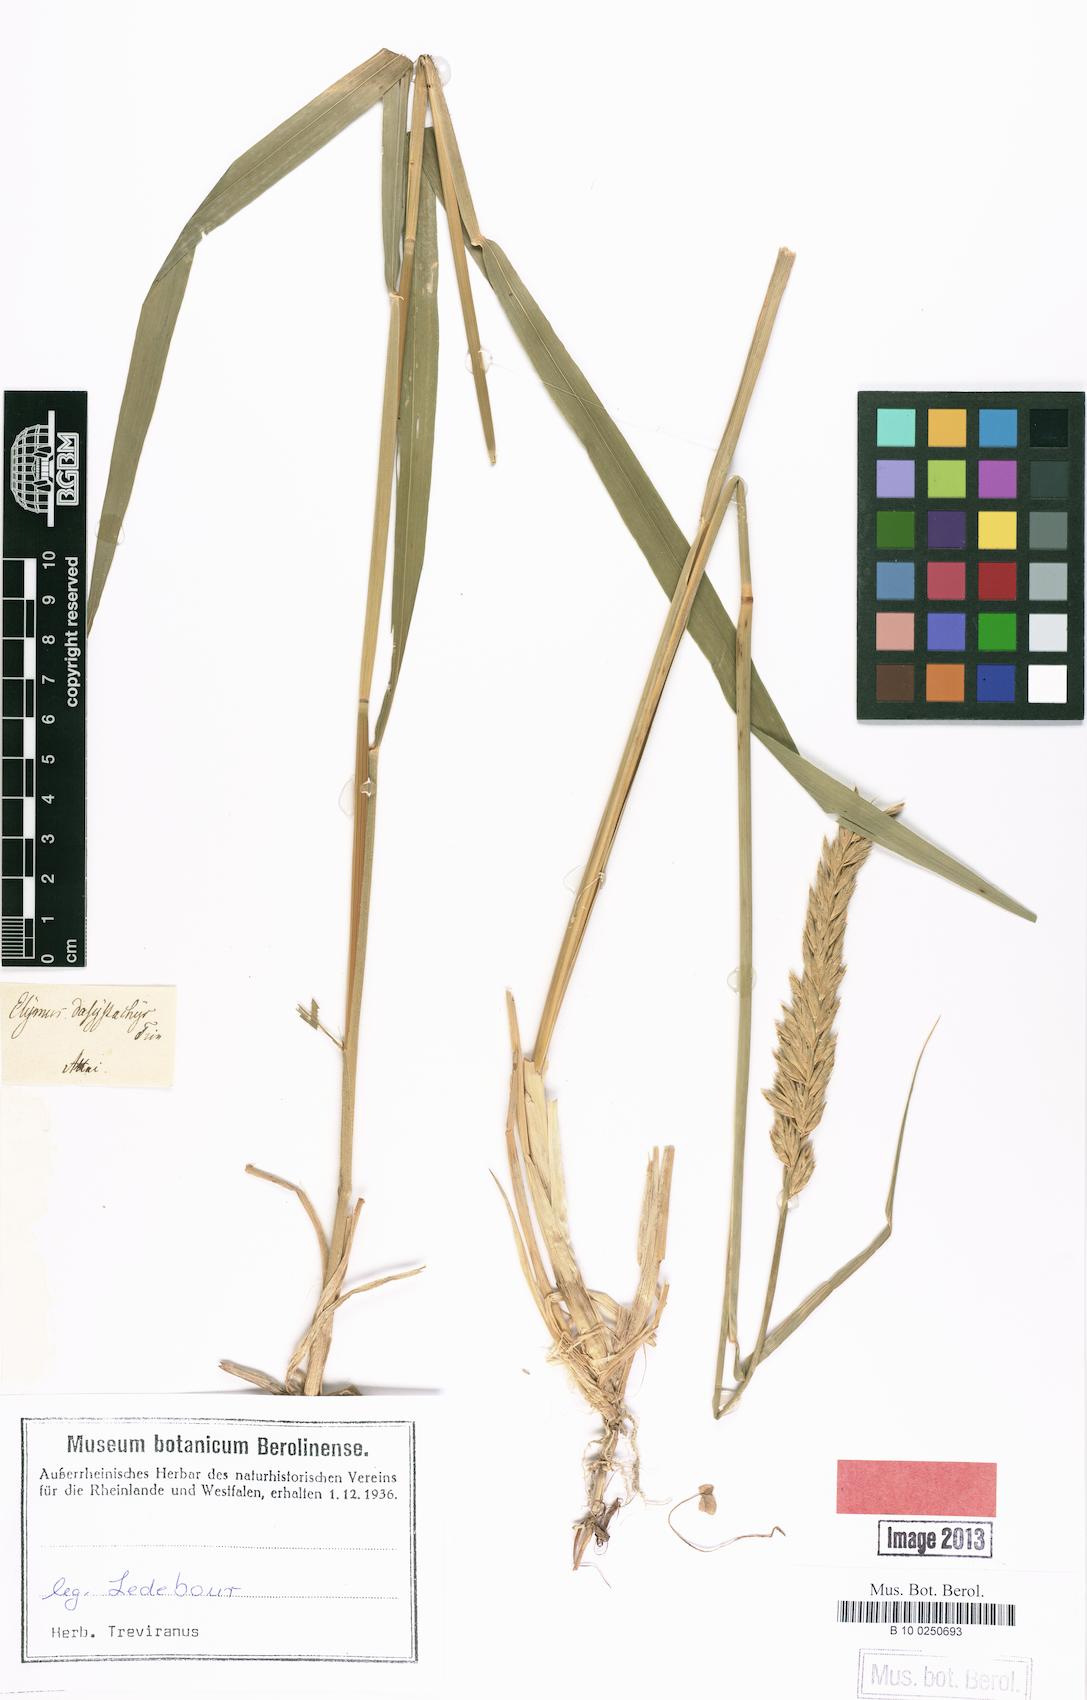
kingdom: Plantae
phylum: Tracheophyta
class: Liliopsida
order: Poales
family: Poaceae
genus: Leymus
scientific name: Leymus secalinus
